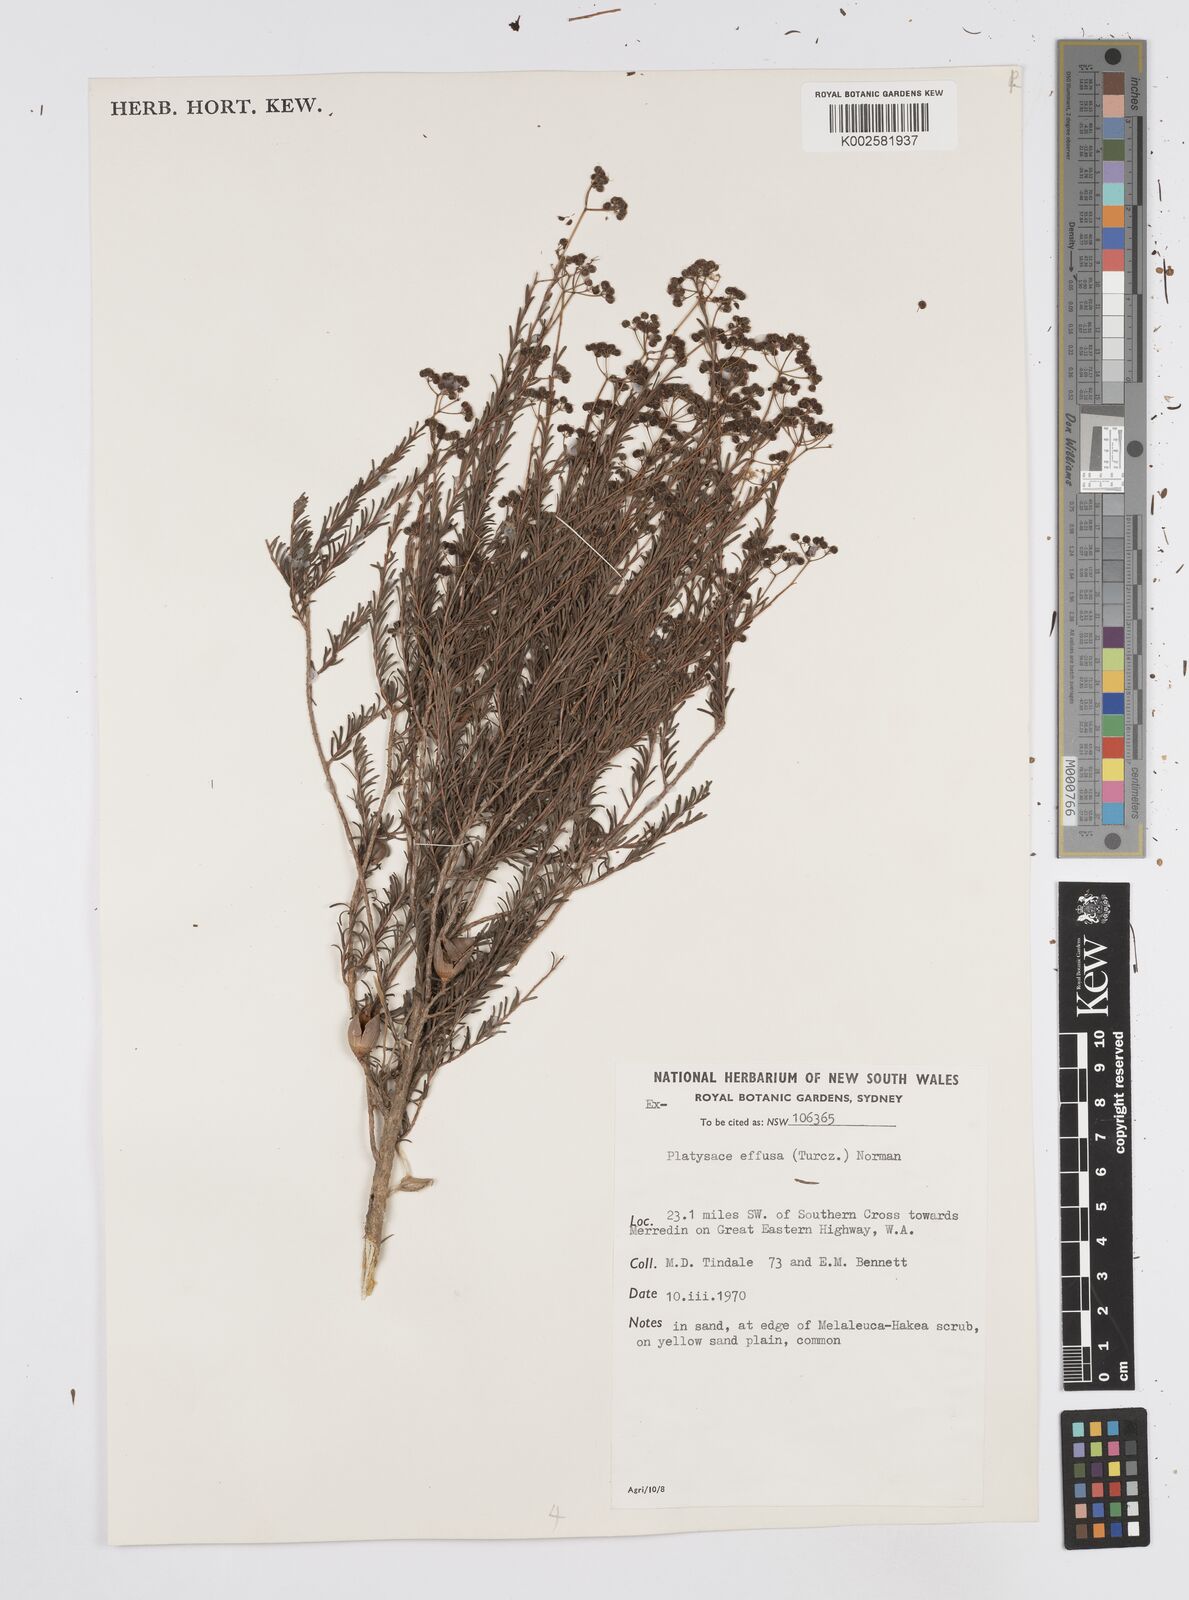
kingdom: Plantae
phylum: Tracheophyta
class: Magnoliopsida
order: Apiales
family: Apiaceae
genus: Platysace
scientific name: Platysace effusa
